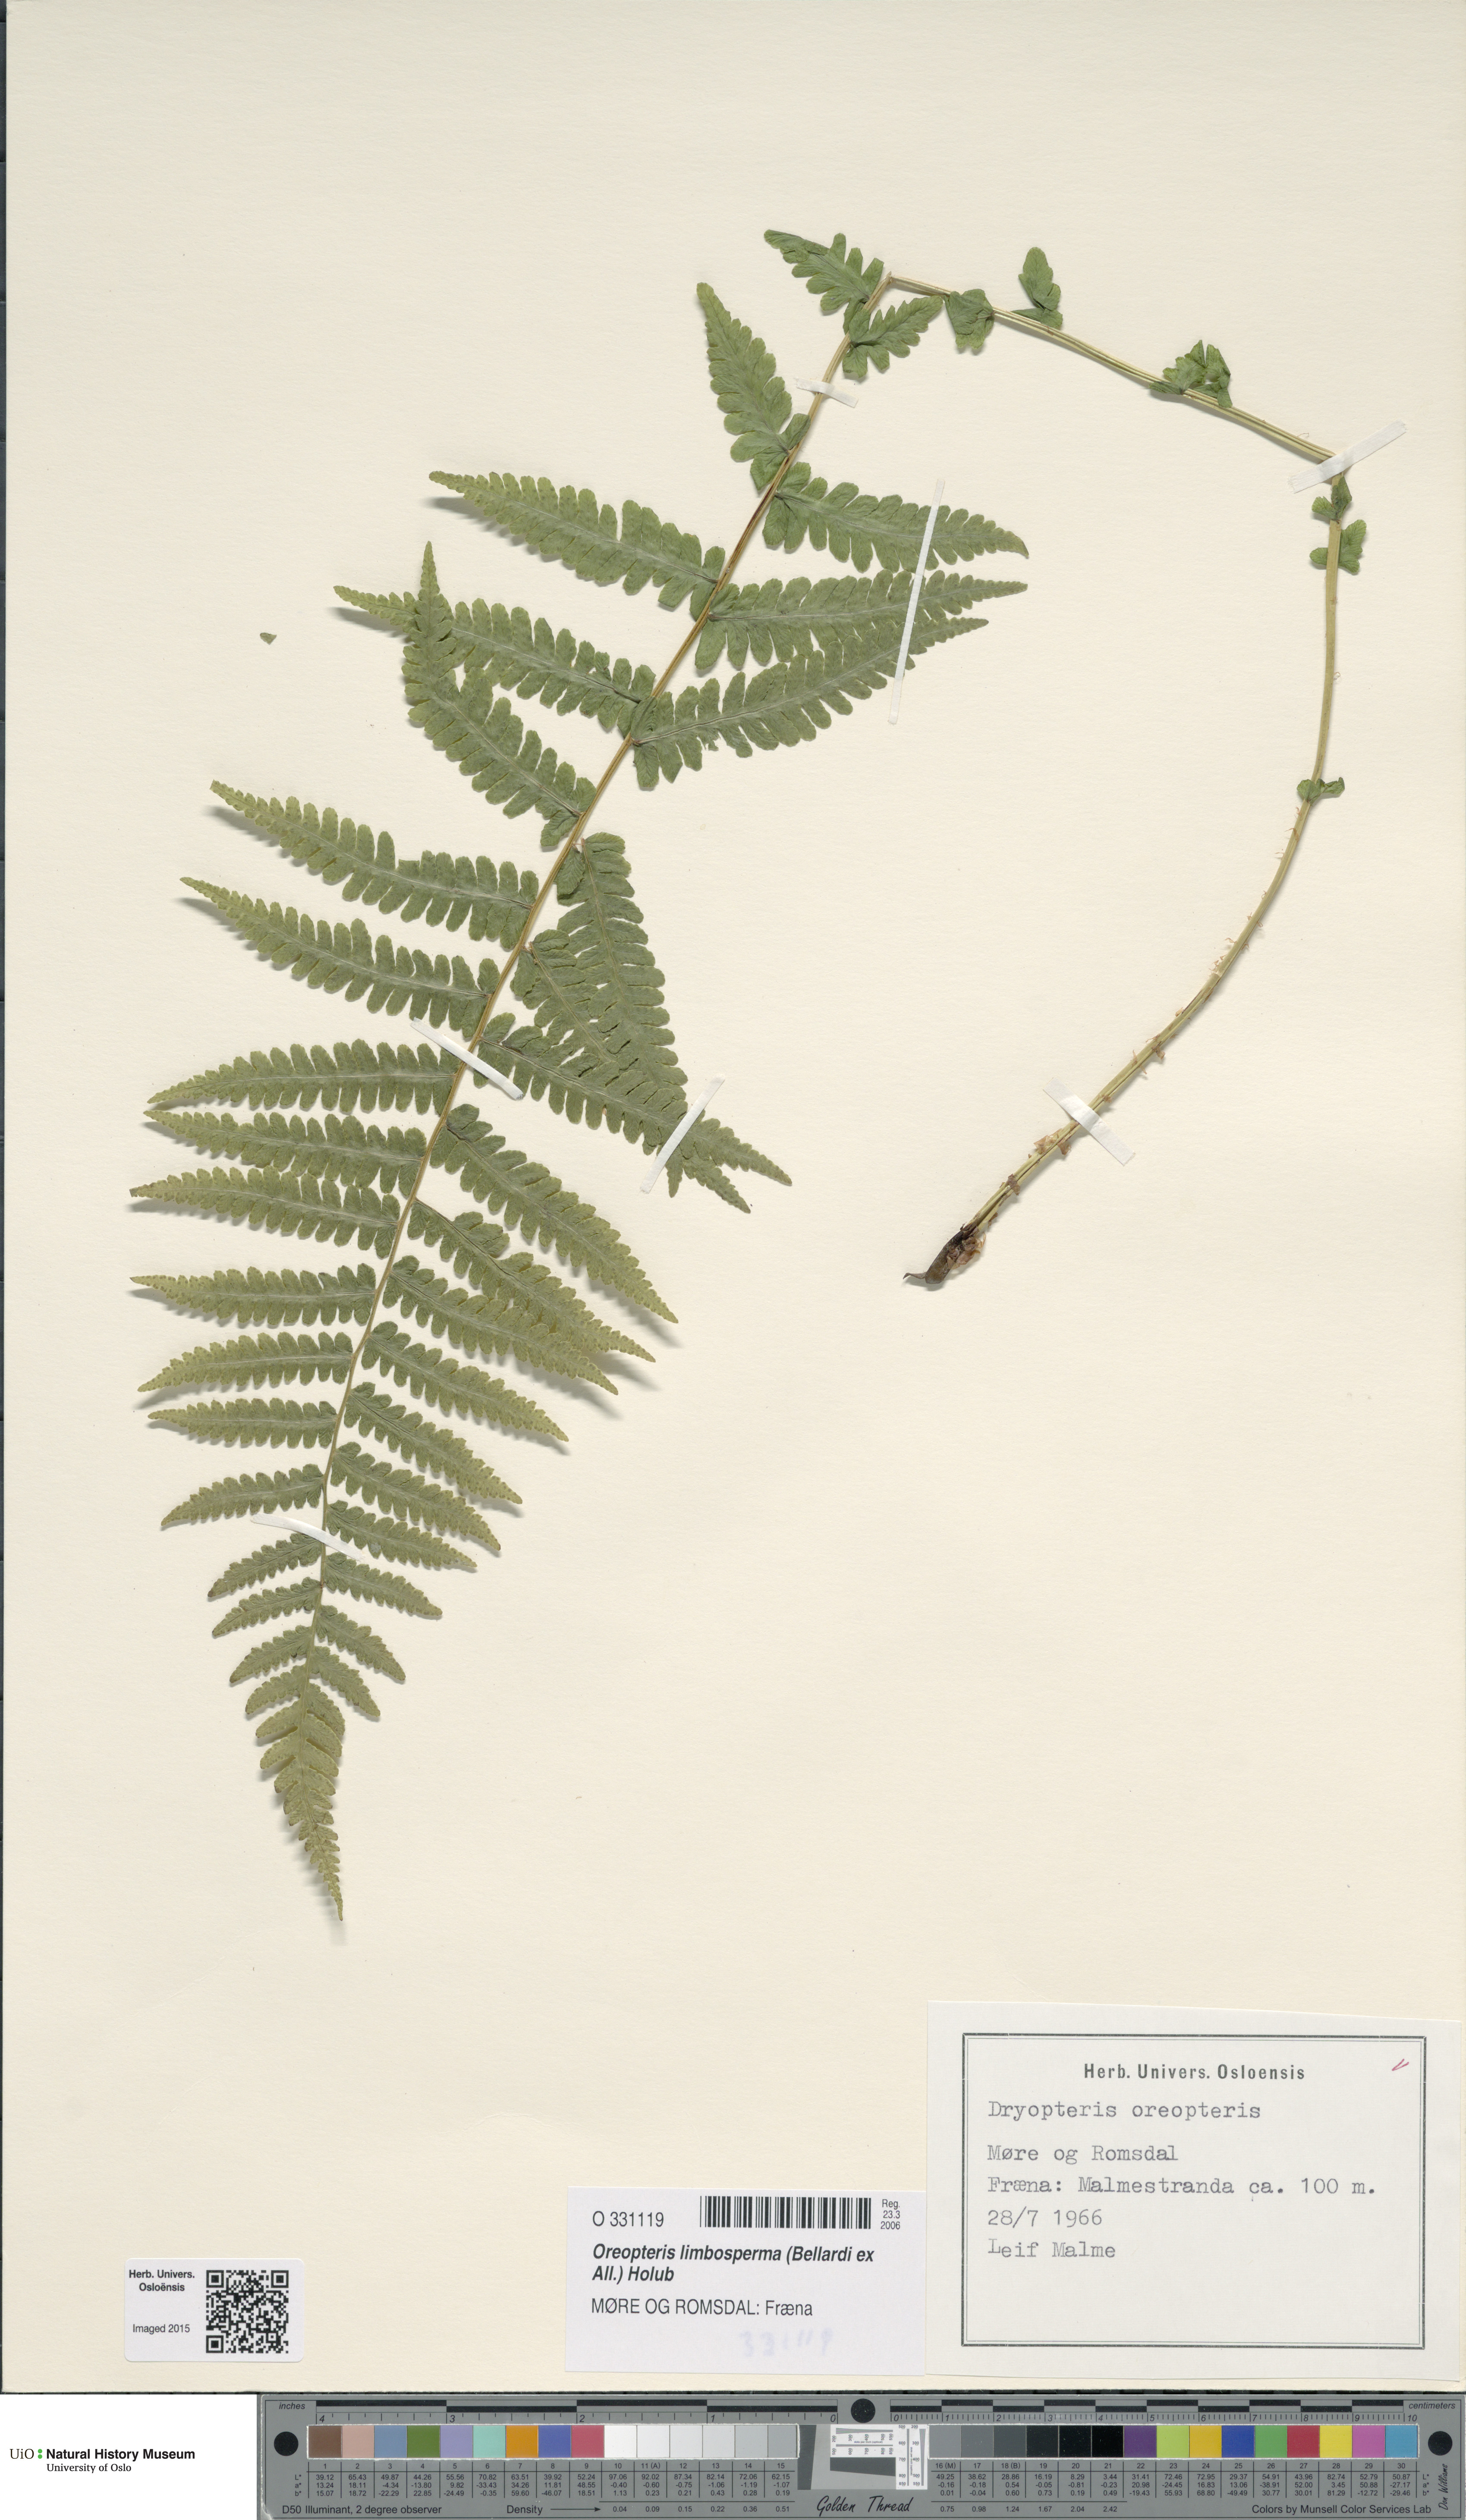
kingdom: Plantae
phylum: Tracheophyta
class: Polypodiopsida
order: Polypodiales
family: Thelypteridaceae
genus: Oreopteris
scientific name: Oreopteris limbosperma
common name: Lemon-scented fern
